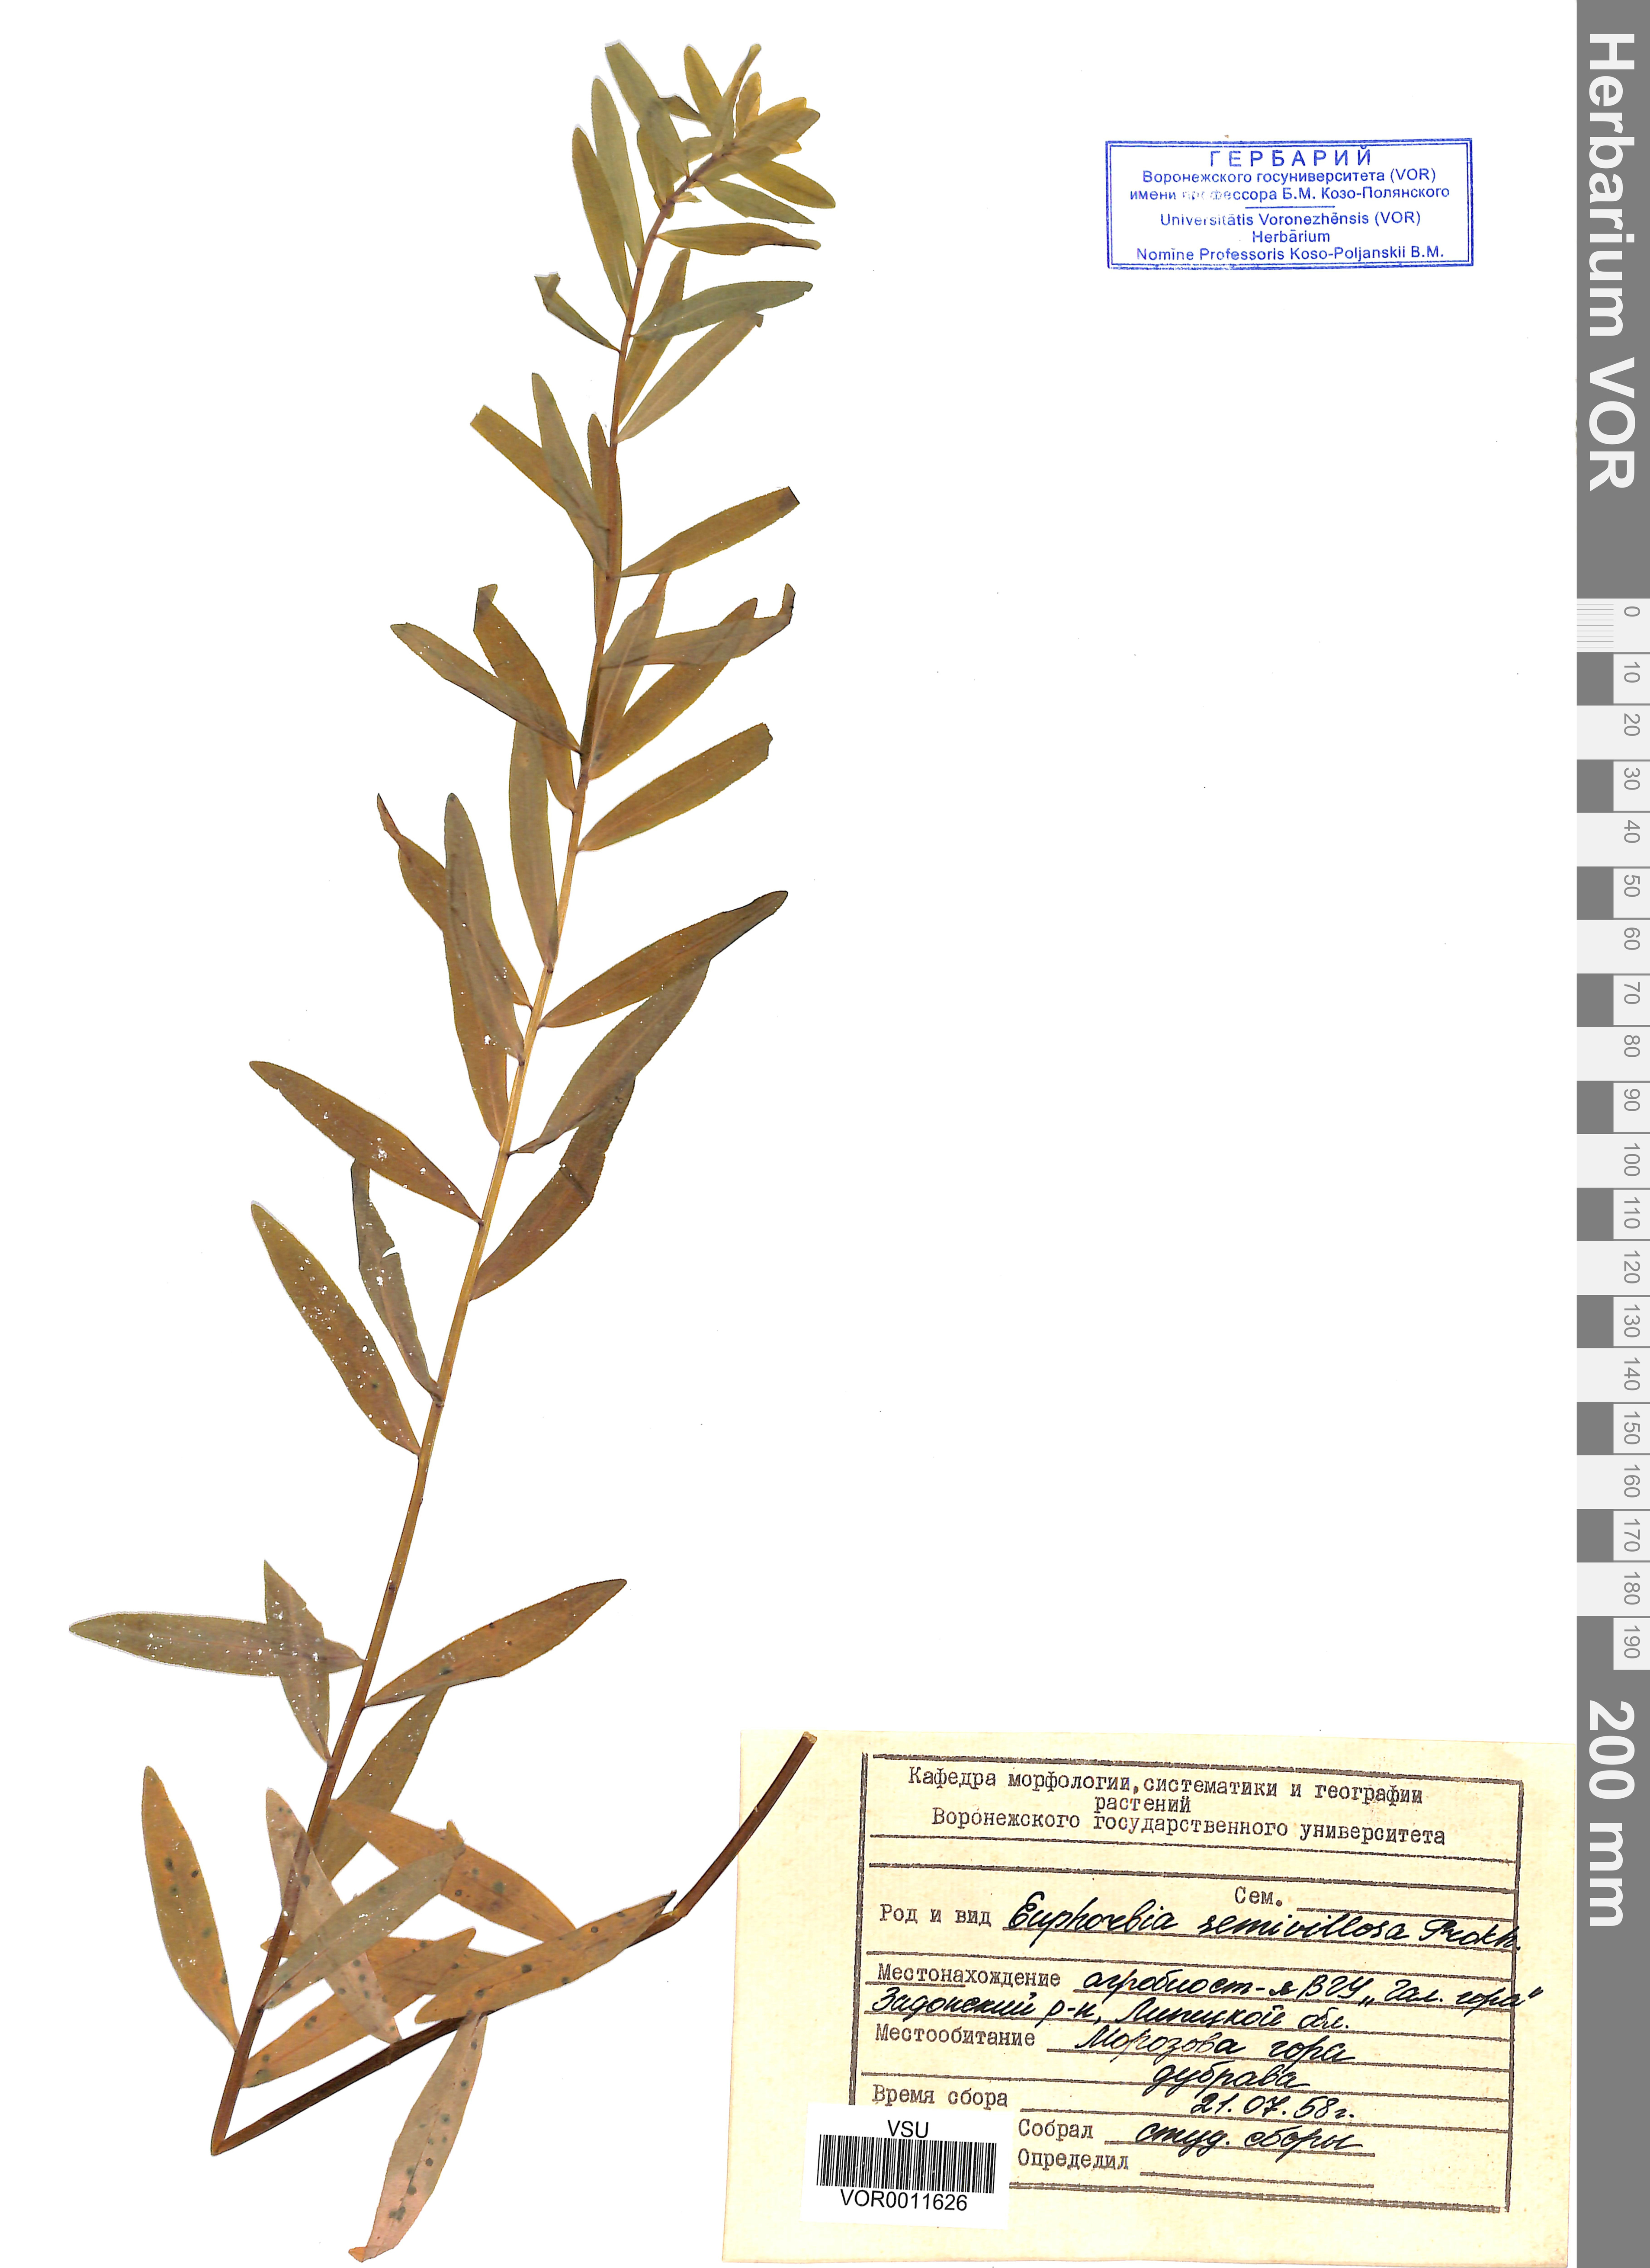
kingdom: Plantae
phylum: Tracheophyta
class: Magnoliopsida
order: Malpighiales
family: Euphorbiaceae
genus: Euphorbia
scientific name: Euphorbia semivillosa
